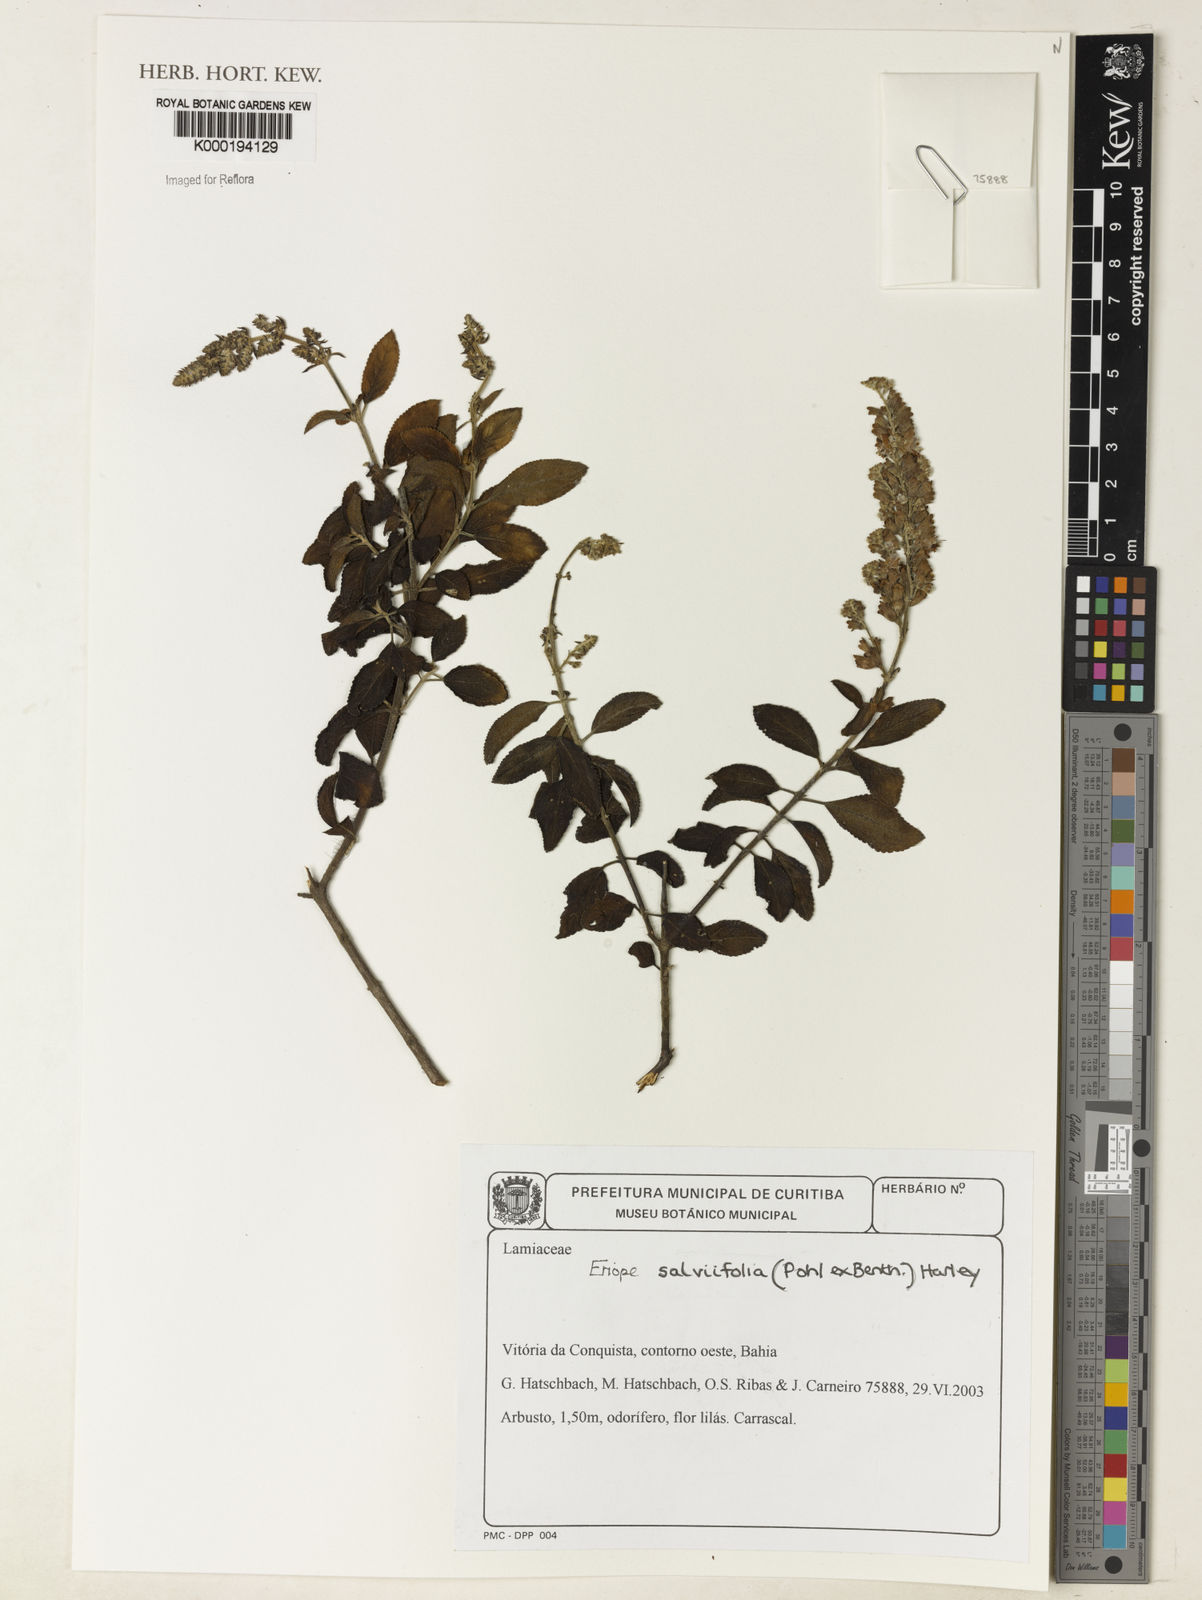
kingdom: Plantae
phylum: Tracheophyta
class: Magnoliopsida
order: Lamiales
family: Lamiaceae
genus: Eriope
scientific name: Eriope salviifolia
